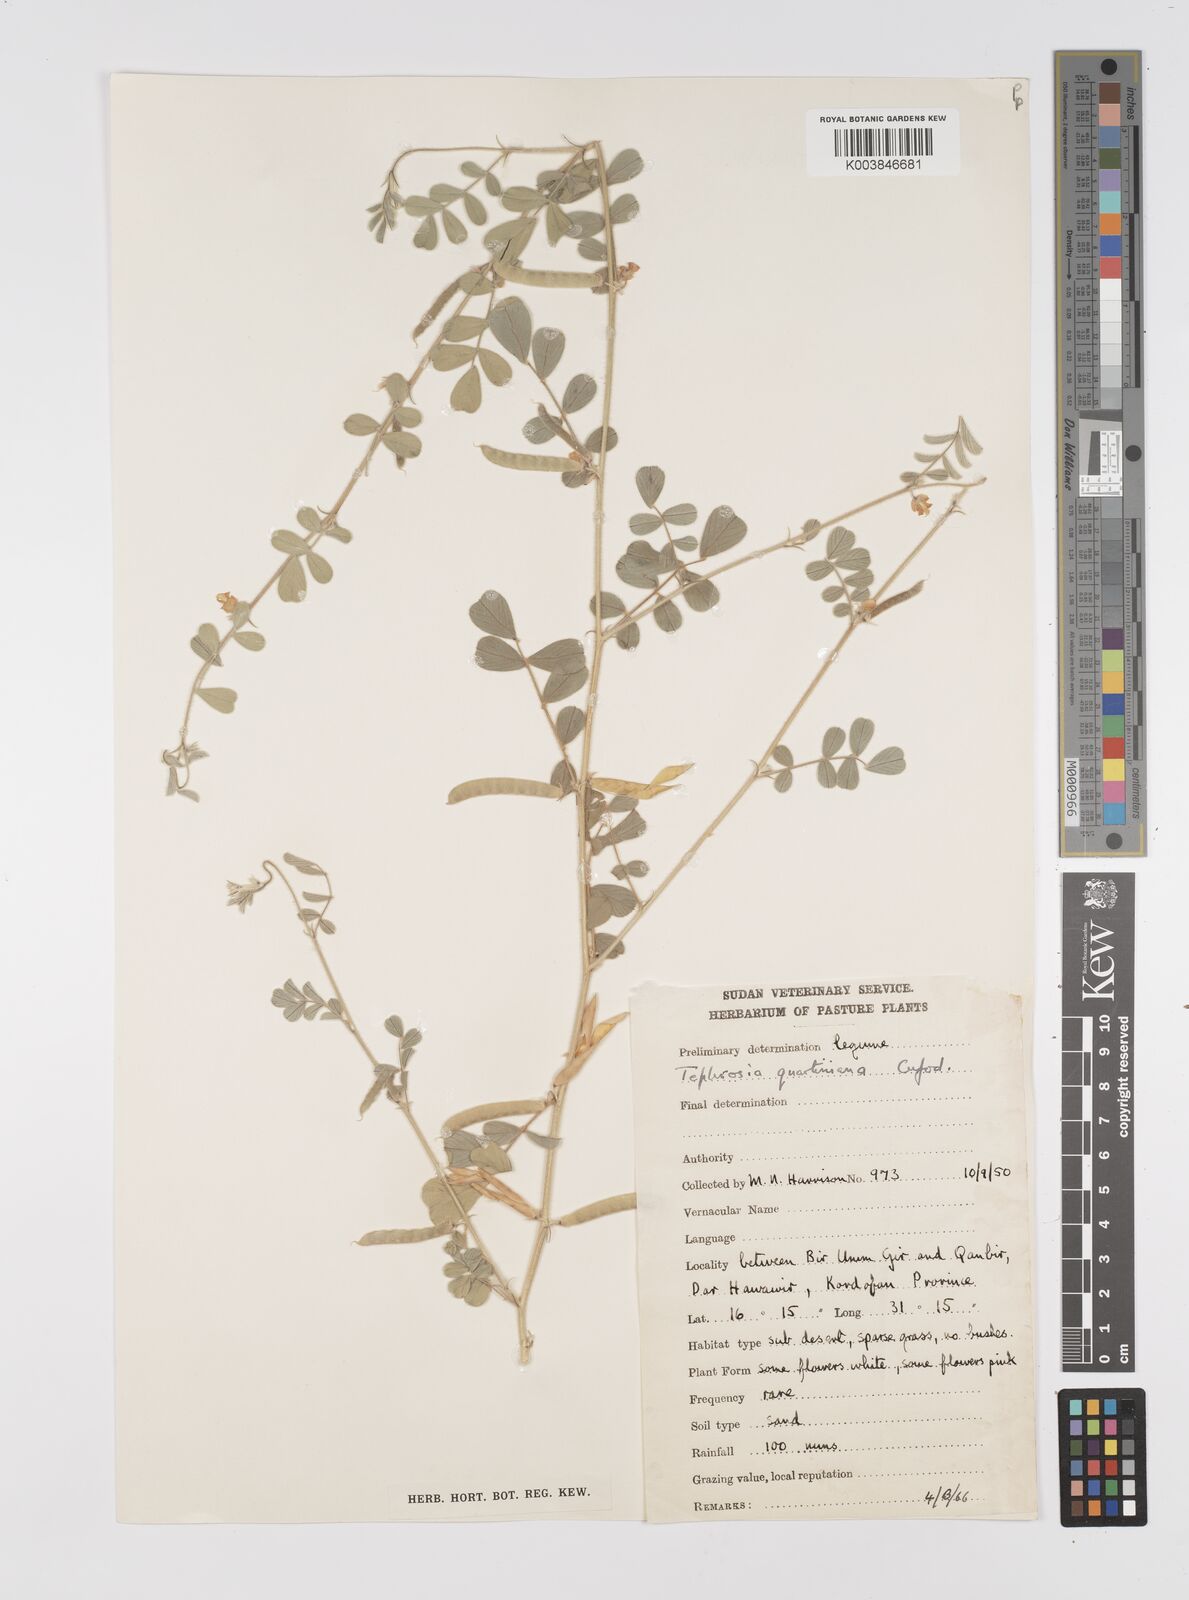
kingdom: Plantae
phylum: Tracheophyta
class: Magnoliopsida
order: Fabales
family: Fabaceae
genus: Tephrosia
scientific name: Tephrosia uniflora
